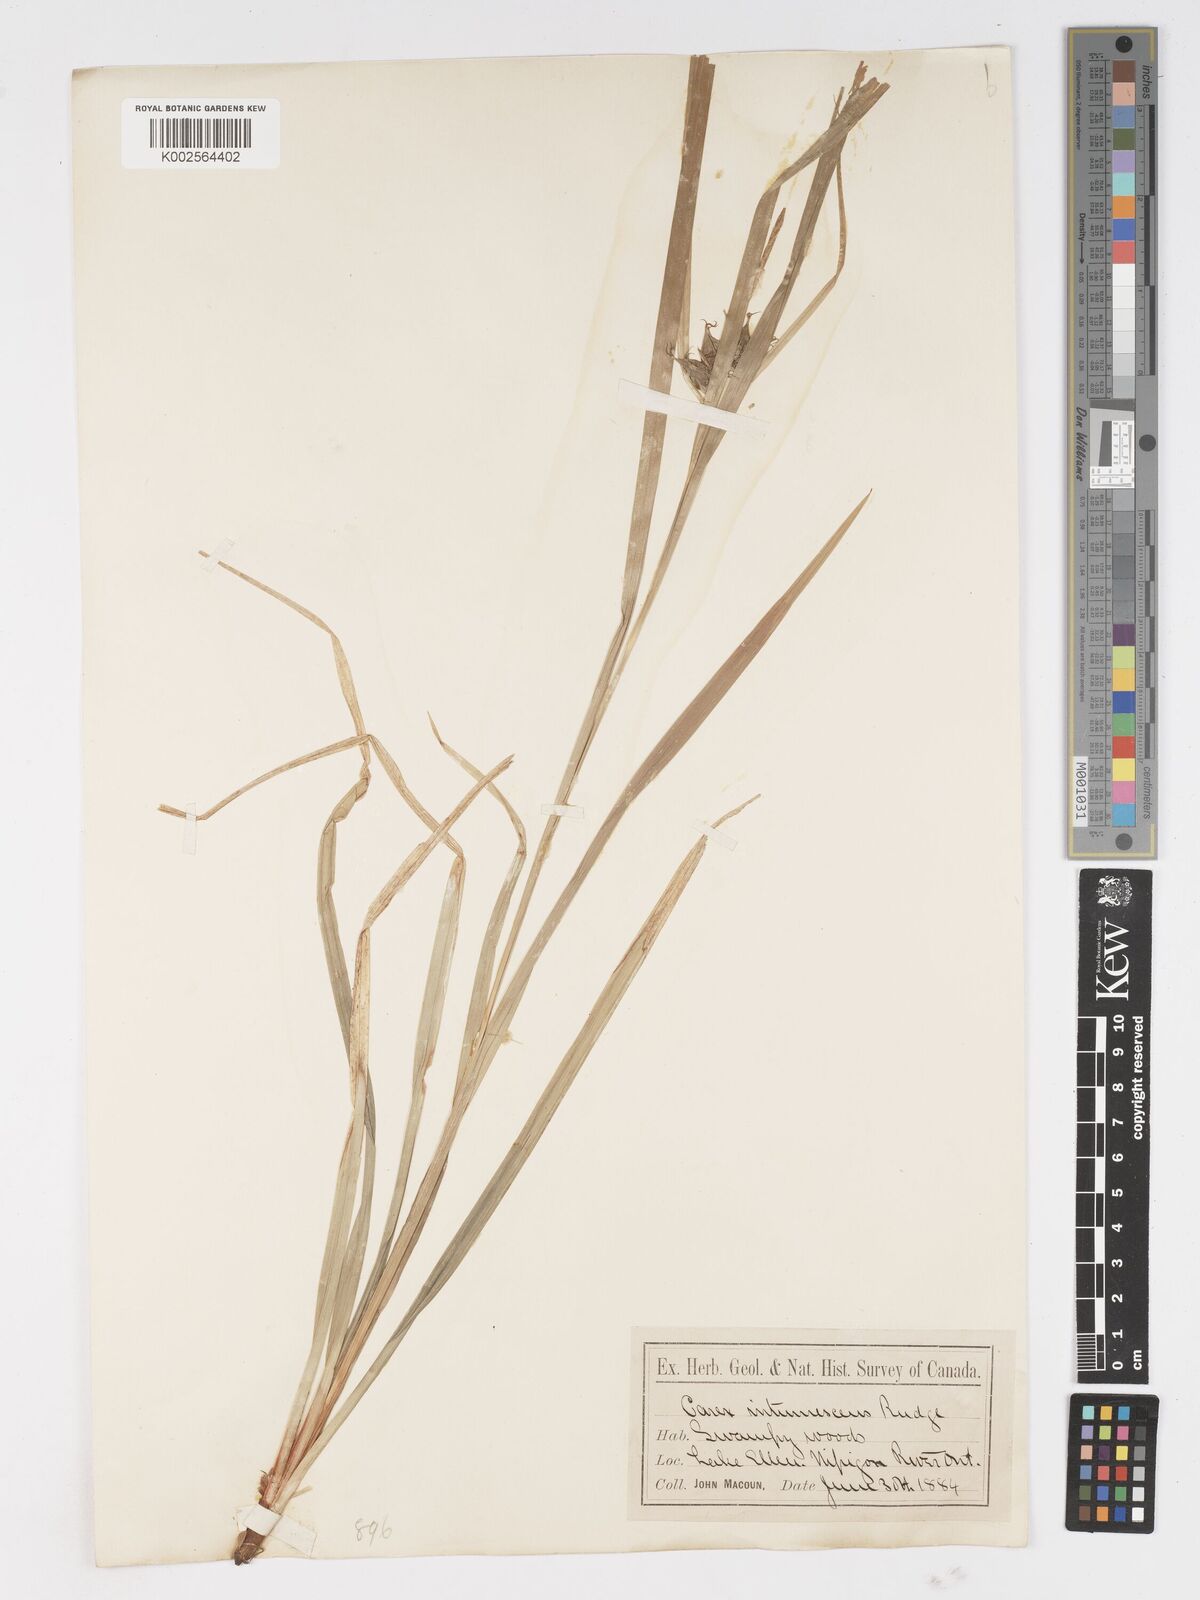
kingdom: Plantae
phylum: Tracheophyta
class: Liliopsida
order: Poales
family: Cyperaceae
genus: Carex
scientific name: Carex intumescens
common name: Greater bladder sedge
